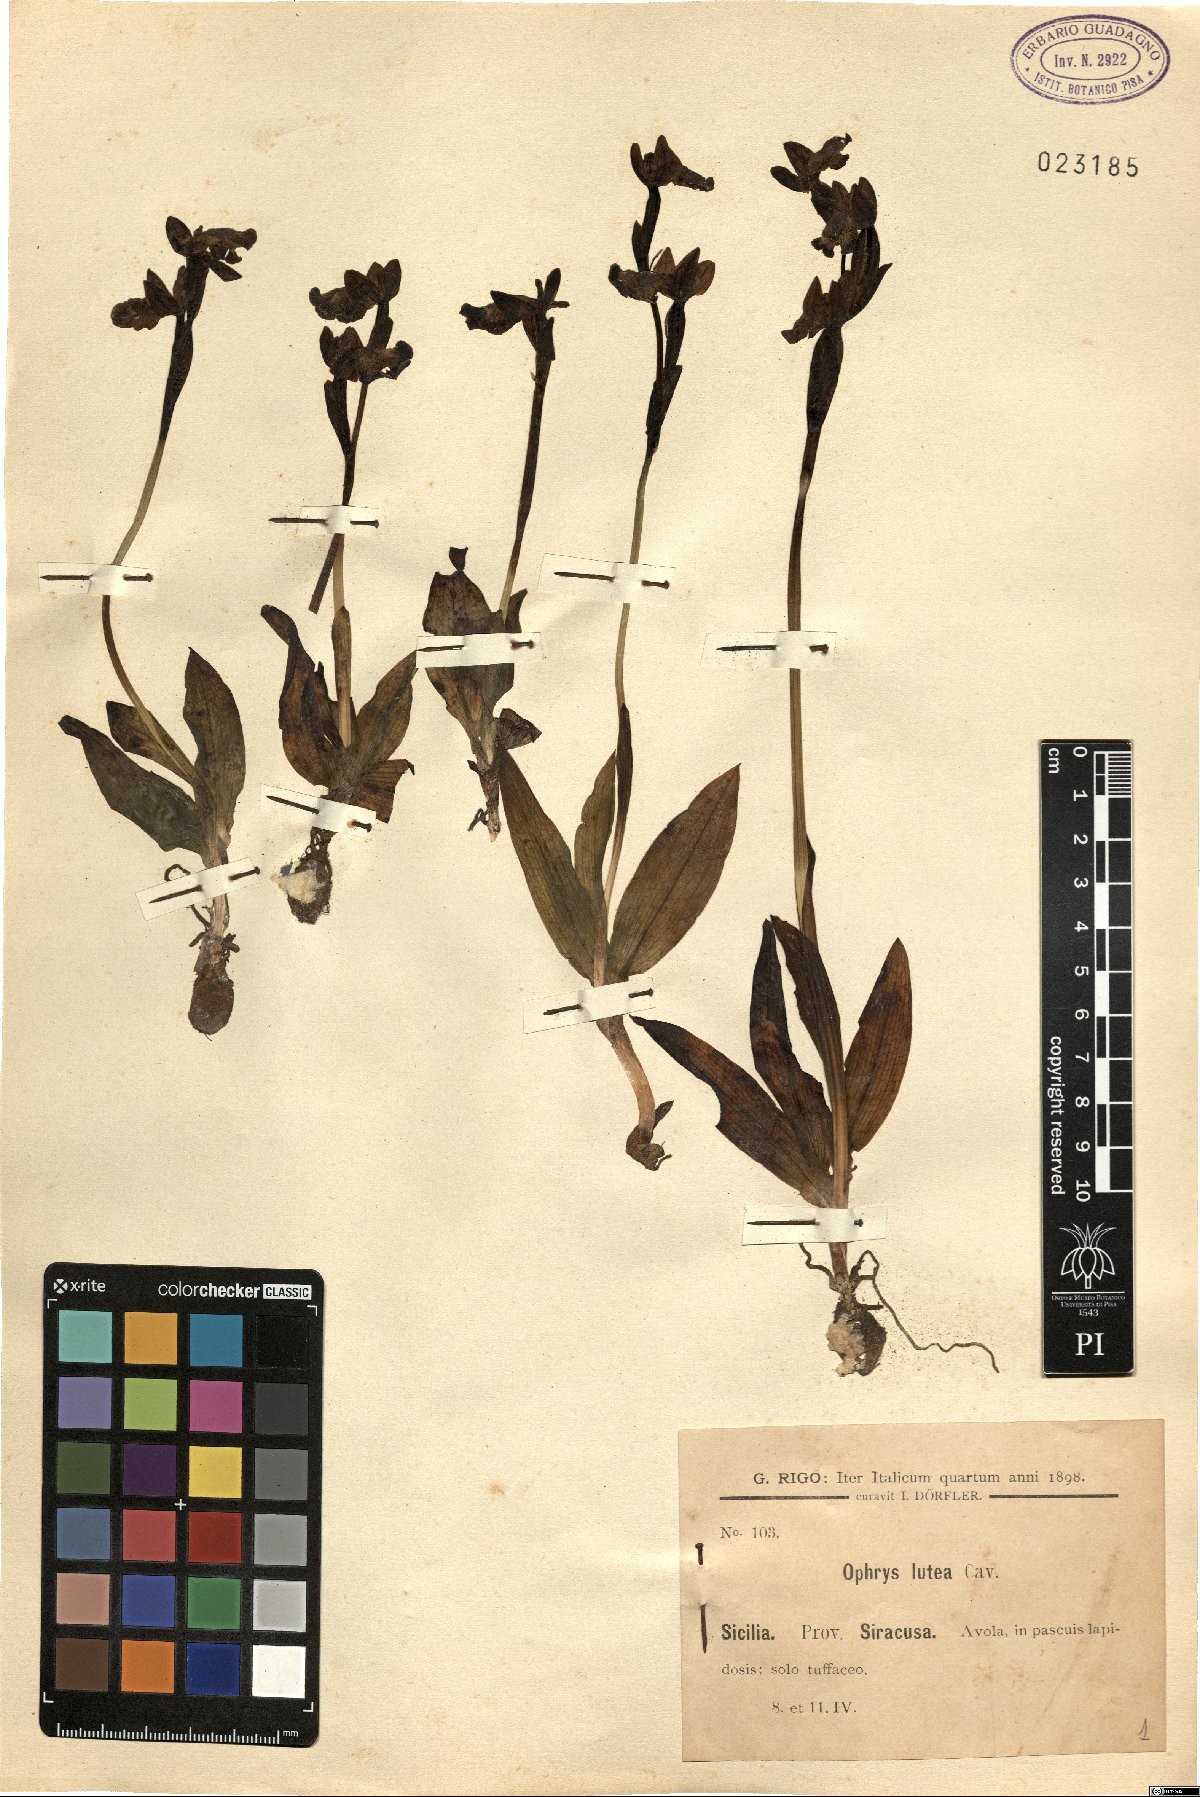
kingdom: Plantae
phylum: Tracheophyta
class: Liliopsida
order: Asparagales
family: Orchidaceae
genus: Ophrys
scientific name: Ophrys lutea
